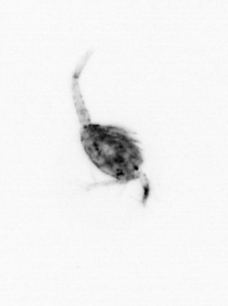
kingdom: Animalia
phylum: Arthropoda
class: Copepoda
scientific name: Copepoda
